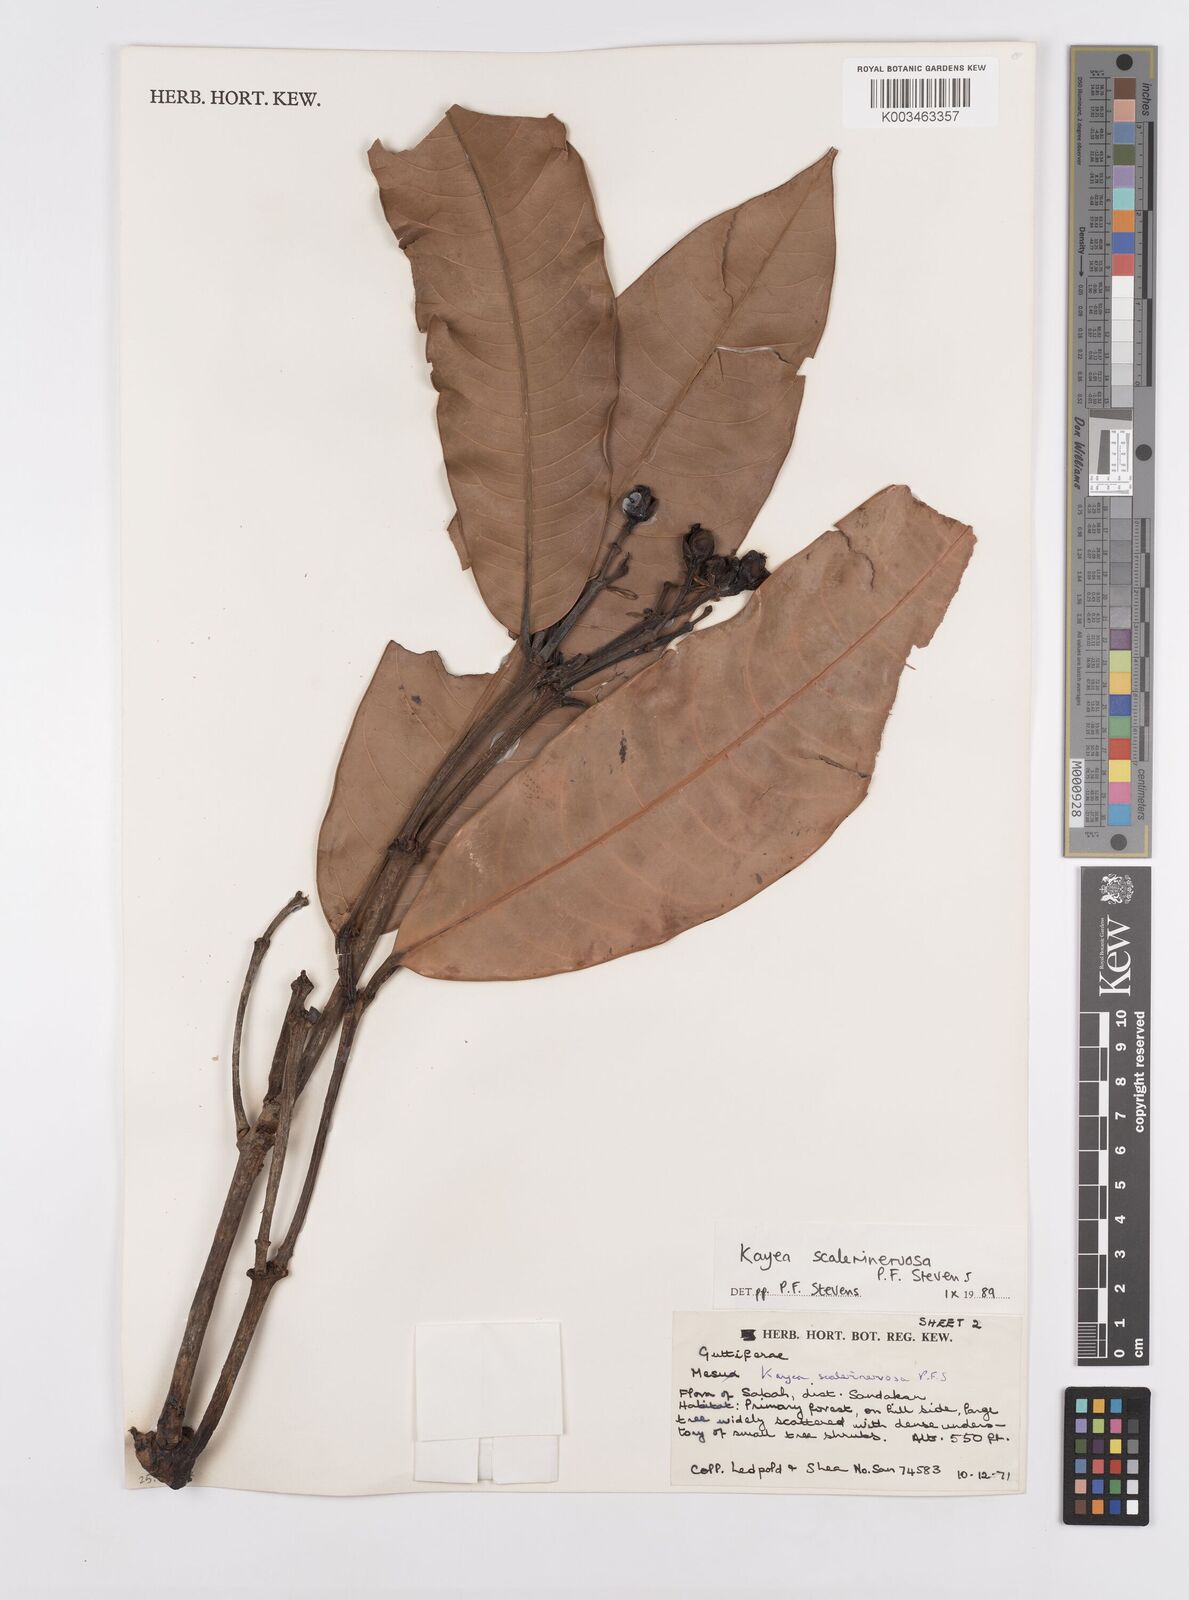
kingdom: Plantae
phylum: Tracheophyta
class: Magnoliopsida
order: Malpighiales
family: Calophyllaceae
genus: Kayea
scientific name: Kayea scalarinervosa
